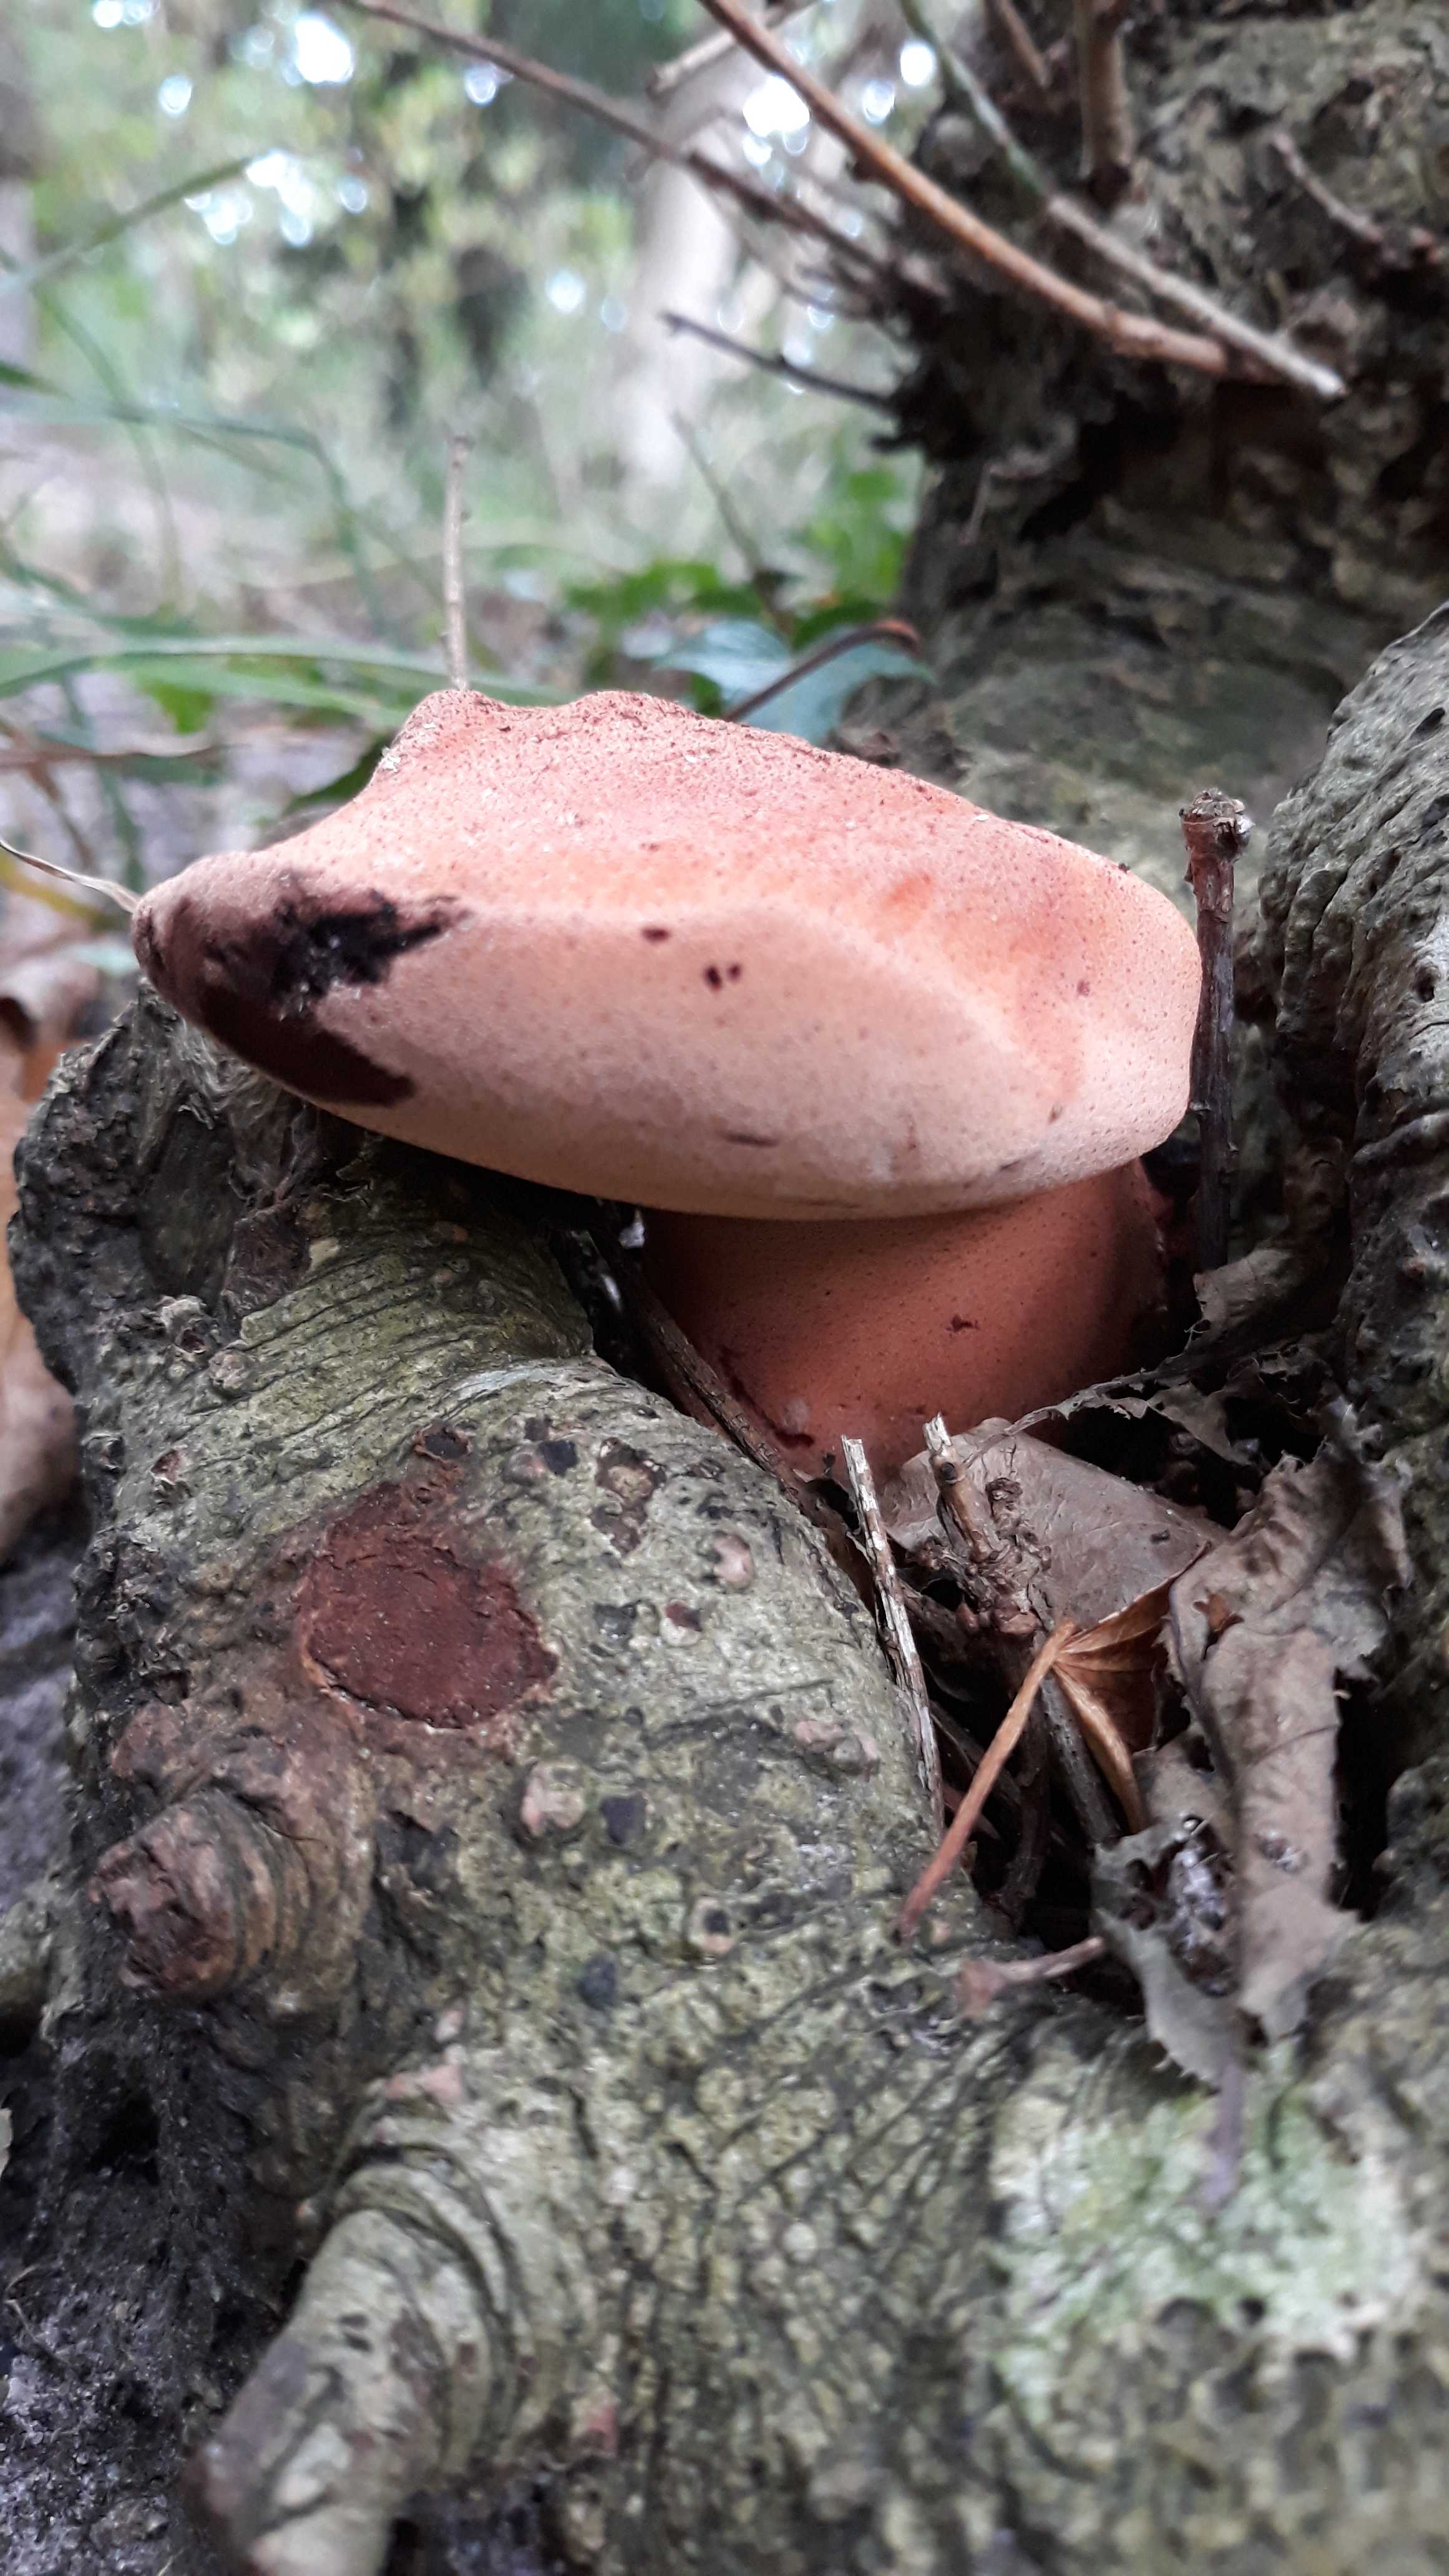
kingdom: Fungi
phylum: Basidiomycota
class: Agaricomycetes
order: Agaricales
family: Fistulinaceae
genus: Fistulina
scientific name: Fistulina hepatica
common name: oksetunge
